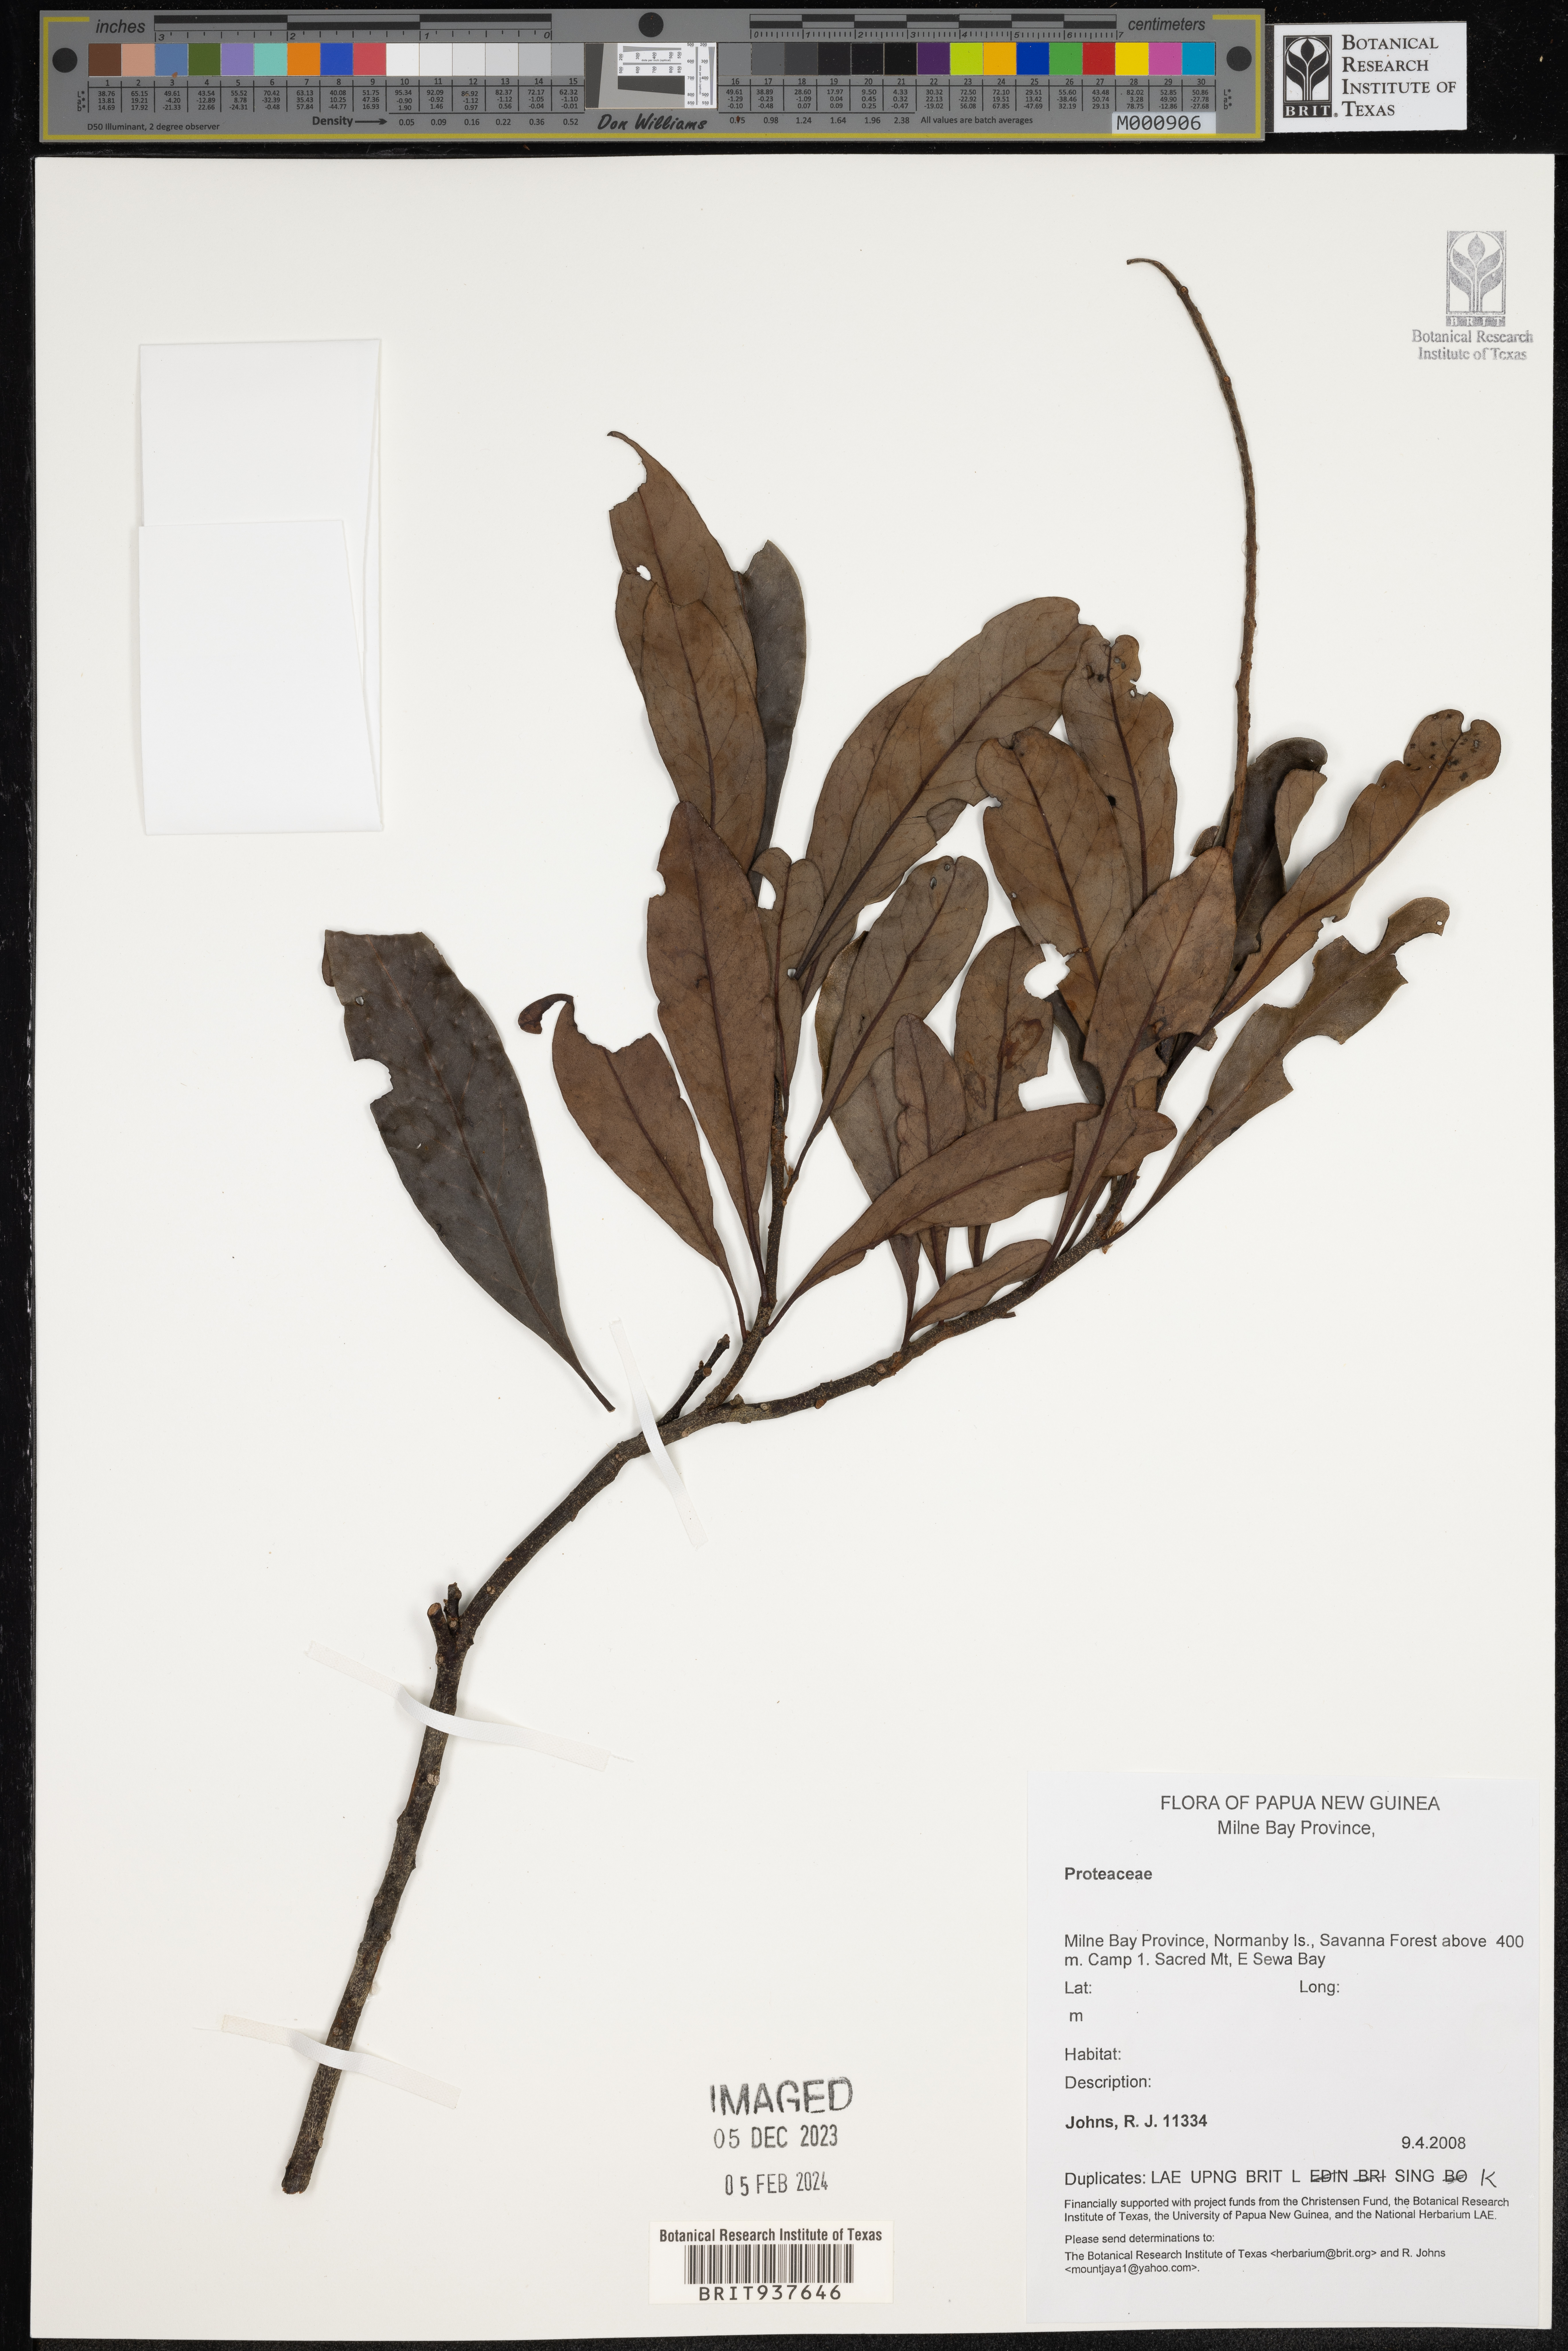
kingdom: Plantae
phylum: Tracheophyta
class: Magnoliopsida
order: Proteales
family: Proteaceae
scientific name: Proteaceae
